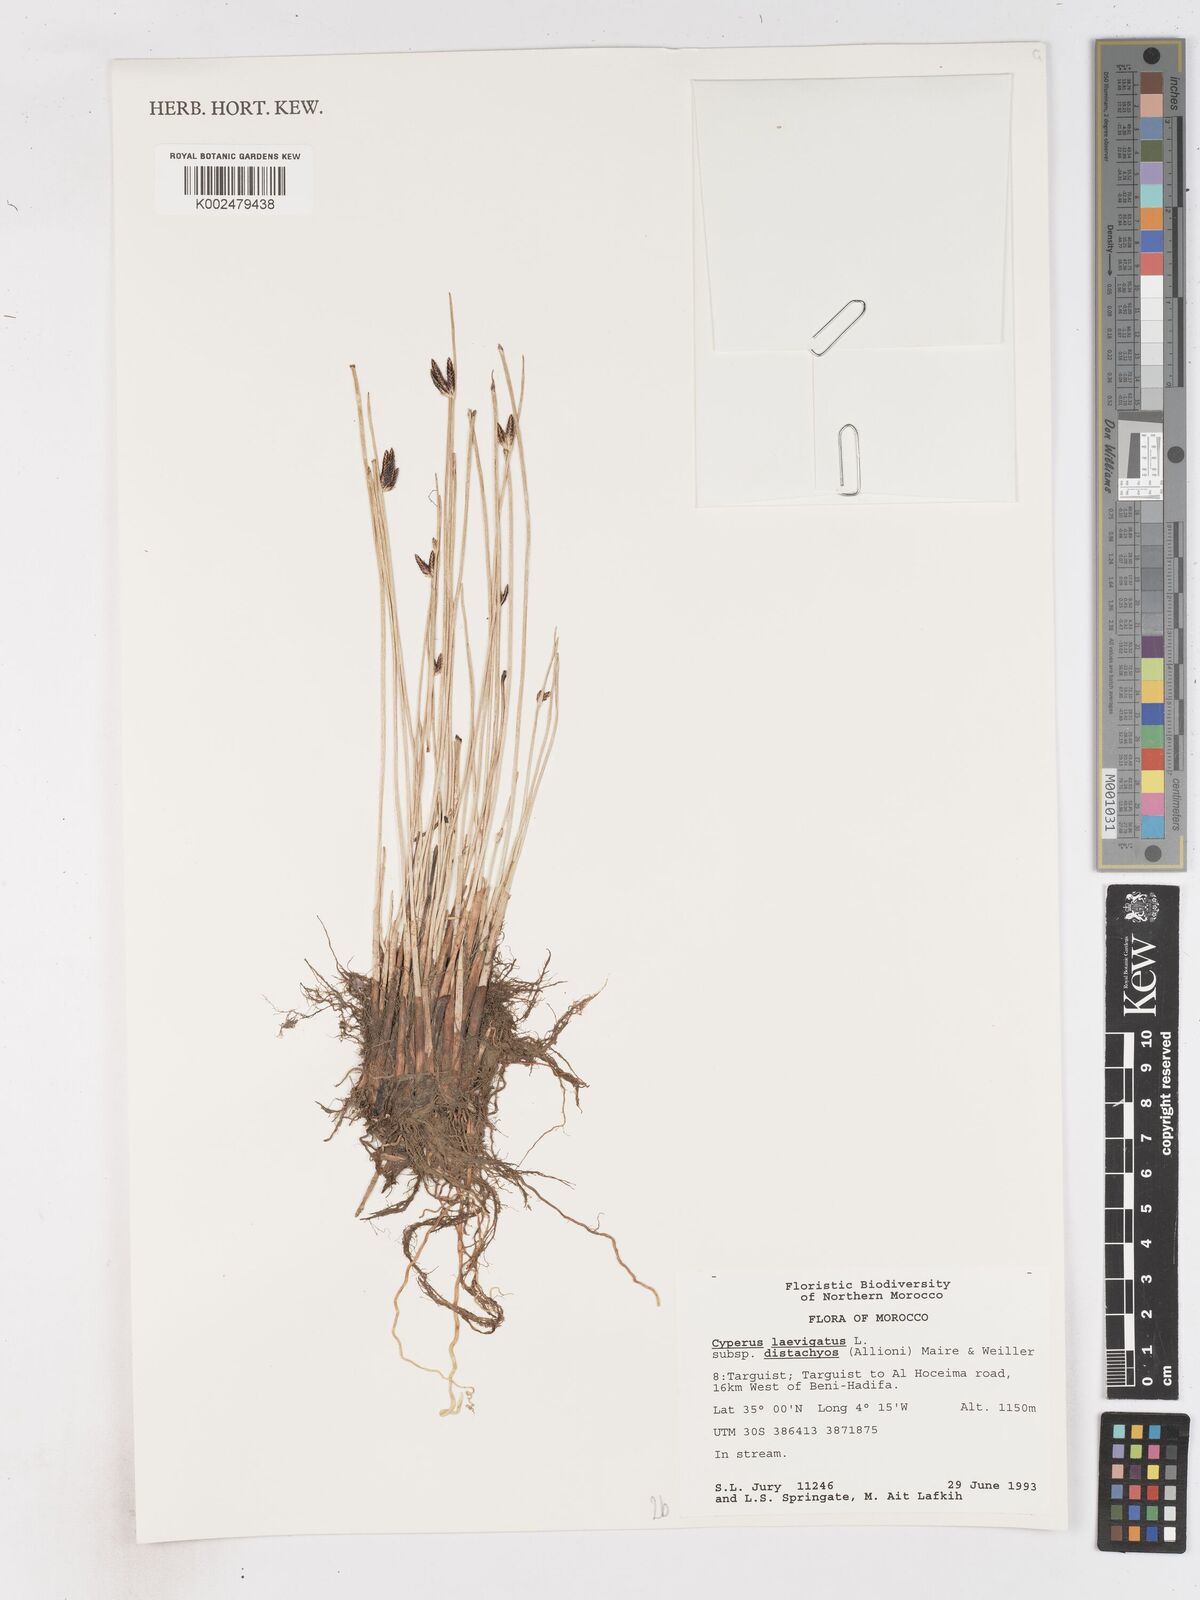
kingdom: Plantae
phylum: Tracheophyta
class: Liliopsida
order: Poales
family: Cyperaceae
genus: Cyperus
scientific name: Cyperus laevigatus
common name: Smooth flat sedge
